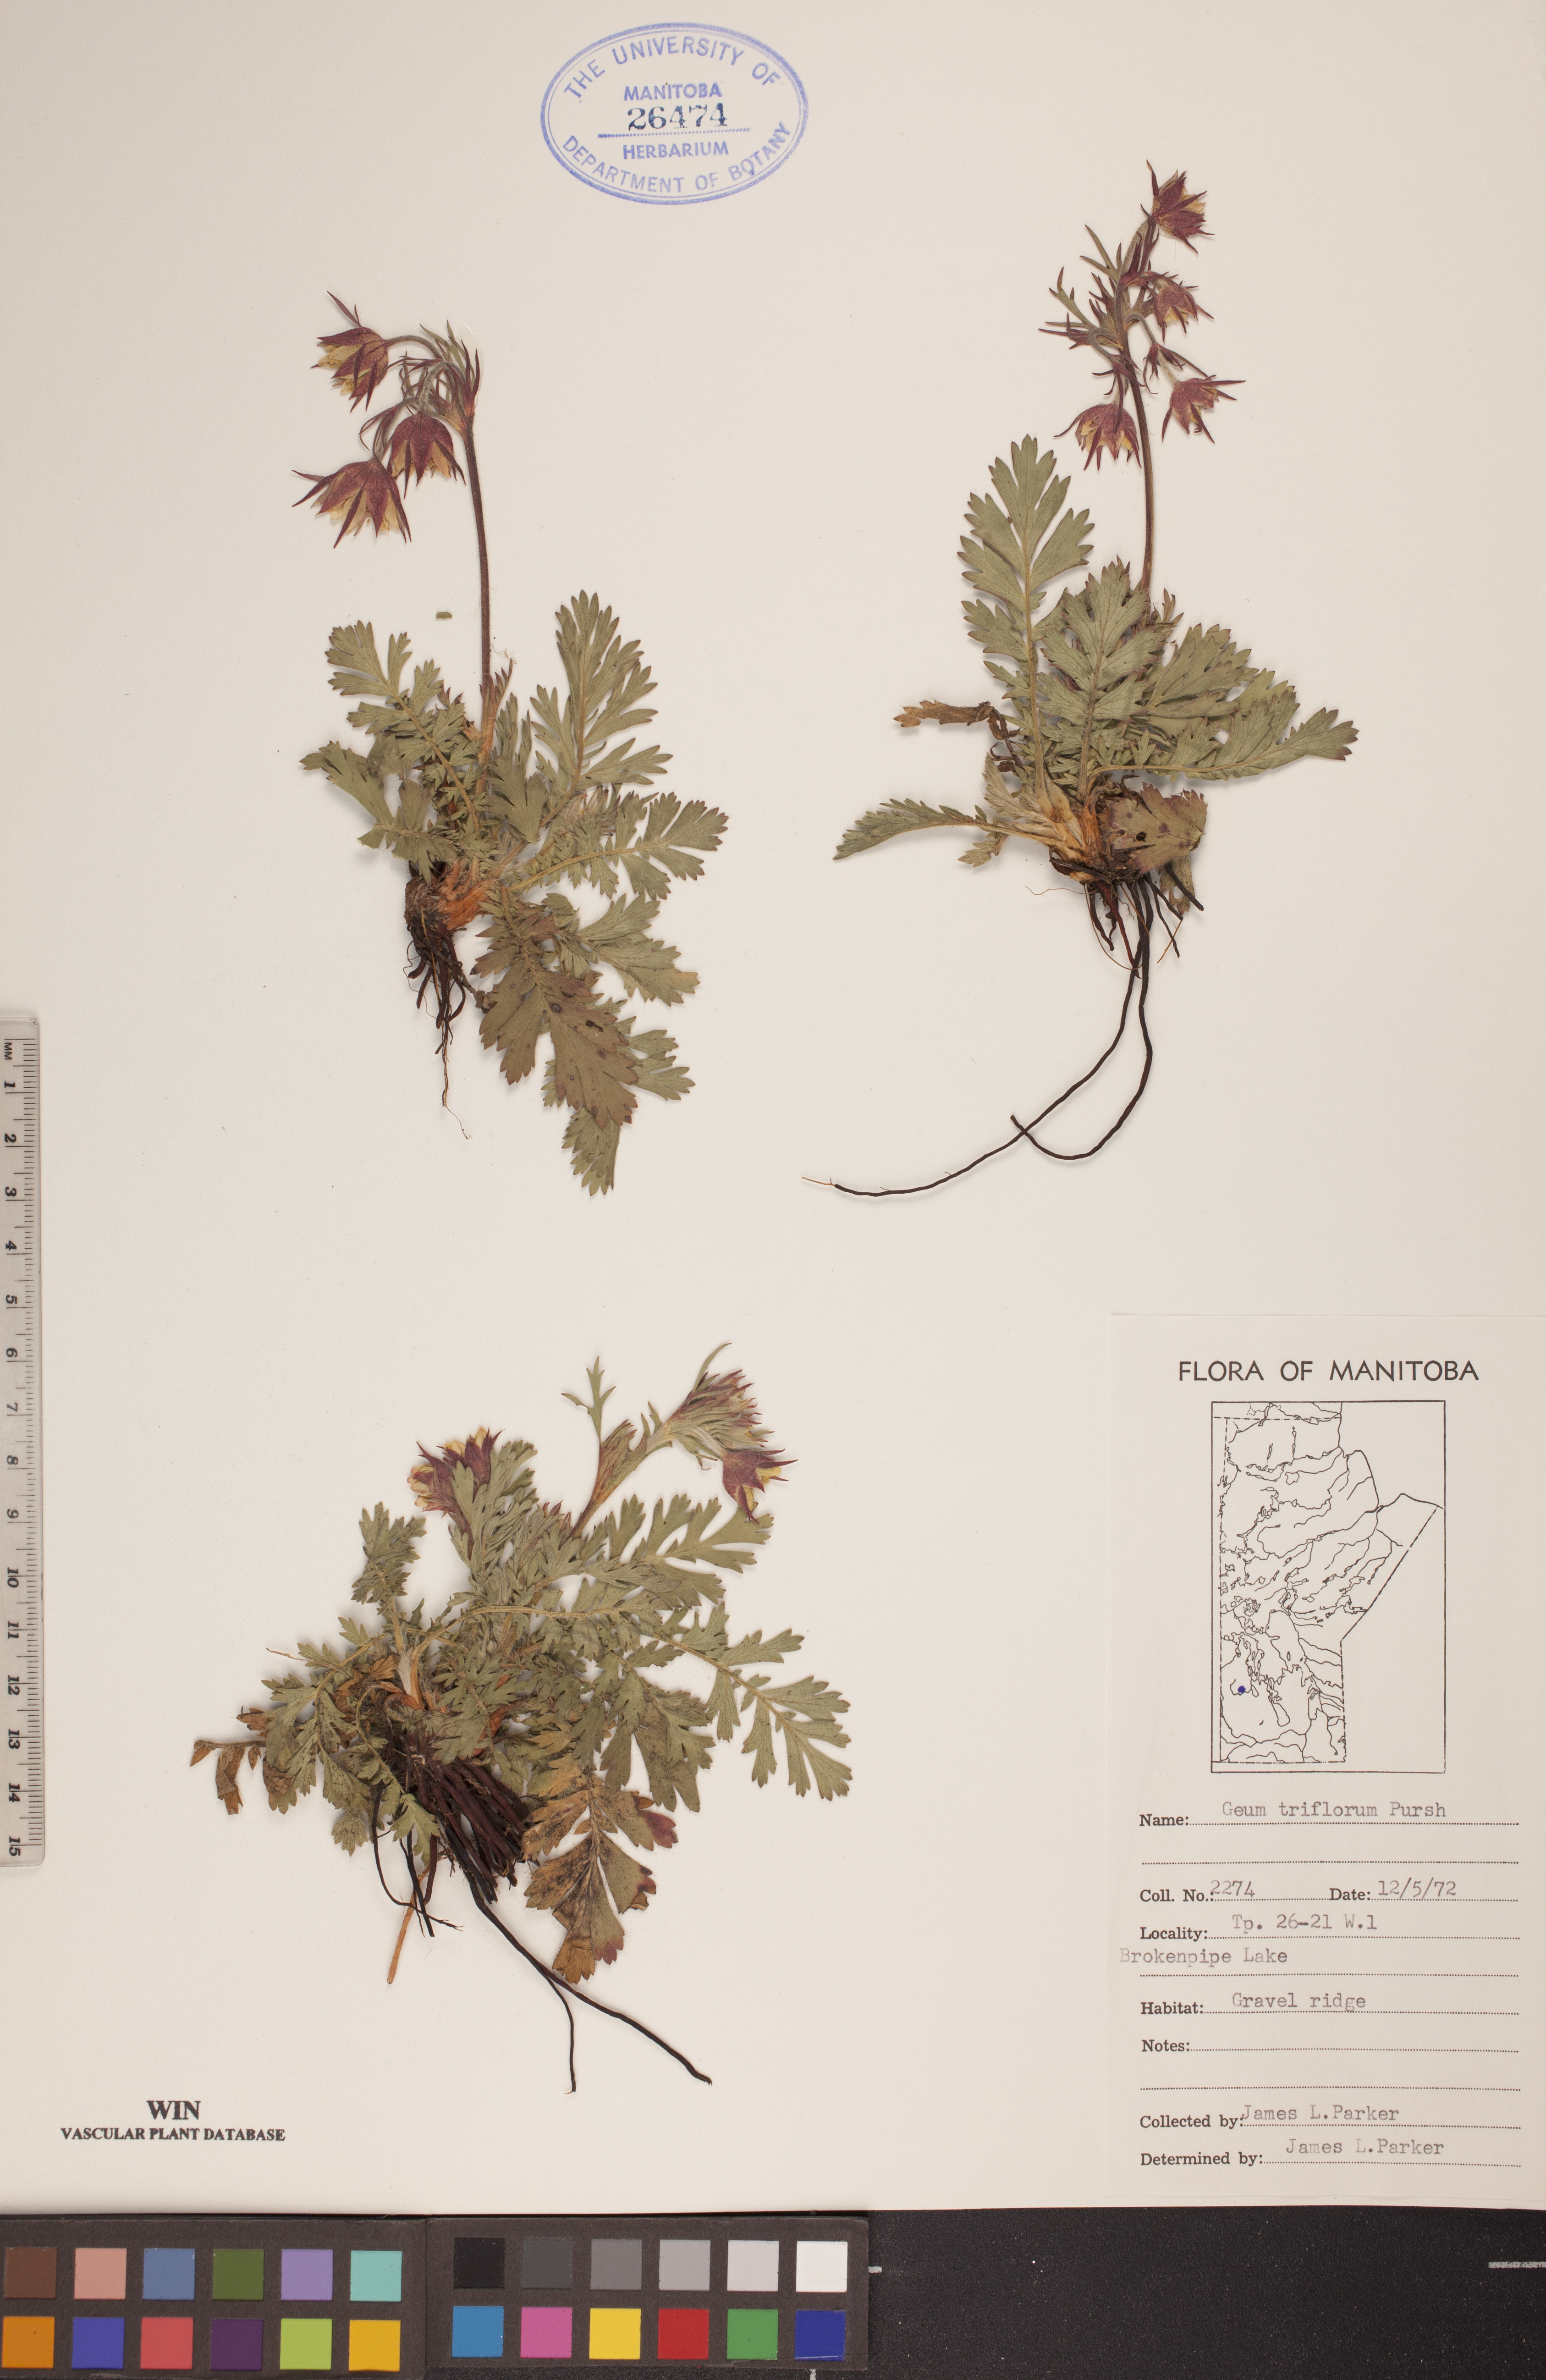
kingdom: Plantae
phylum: Tracheophyta
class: Magnoliopsida
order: Rosales
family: Rosaceae
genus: Geum
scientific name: Geum triflorum
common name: Old man's whiskers
